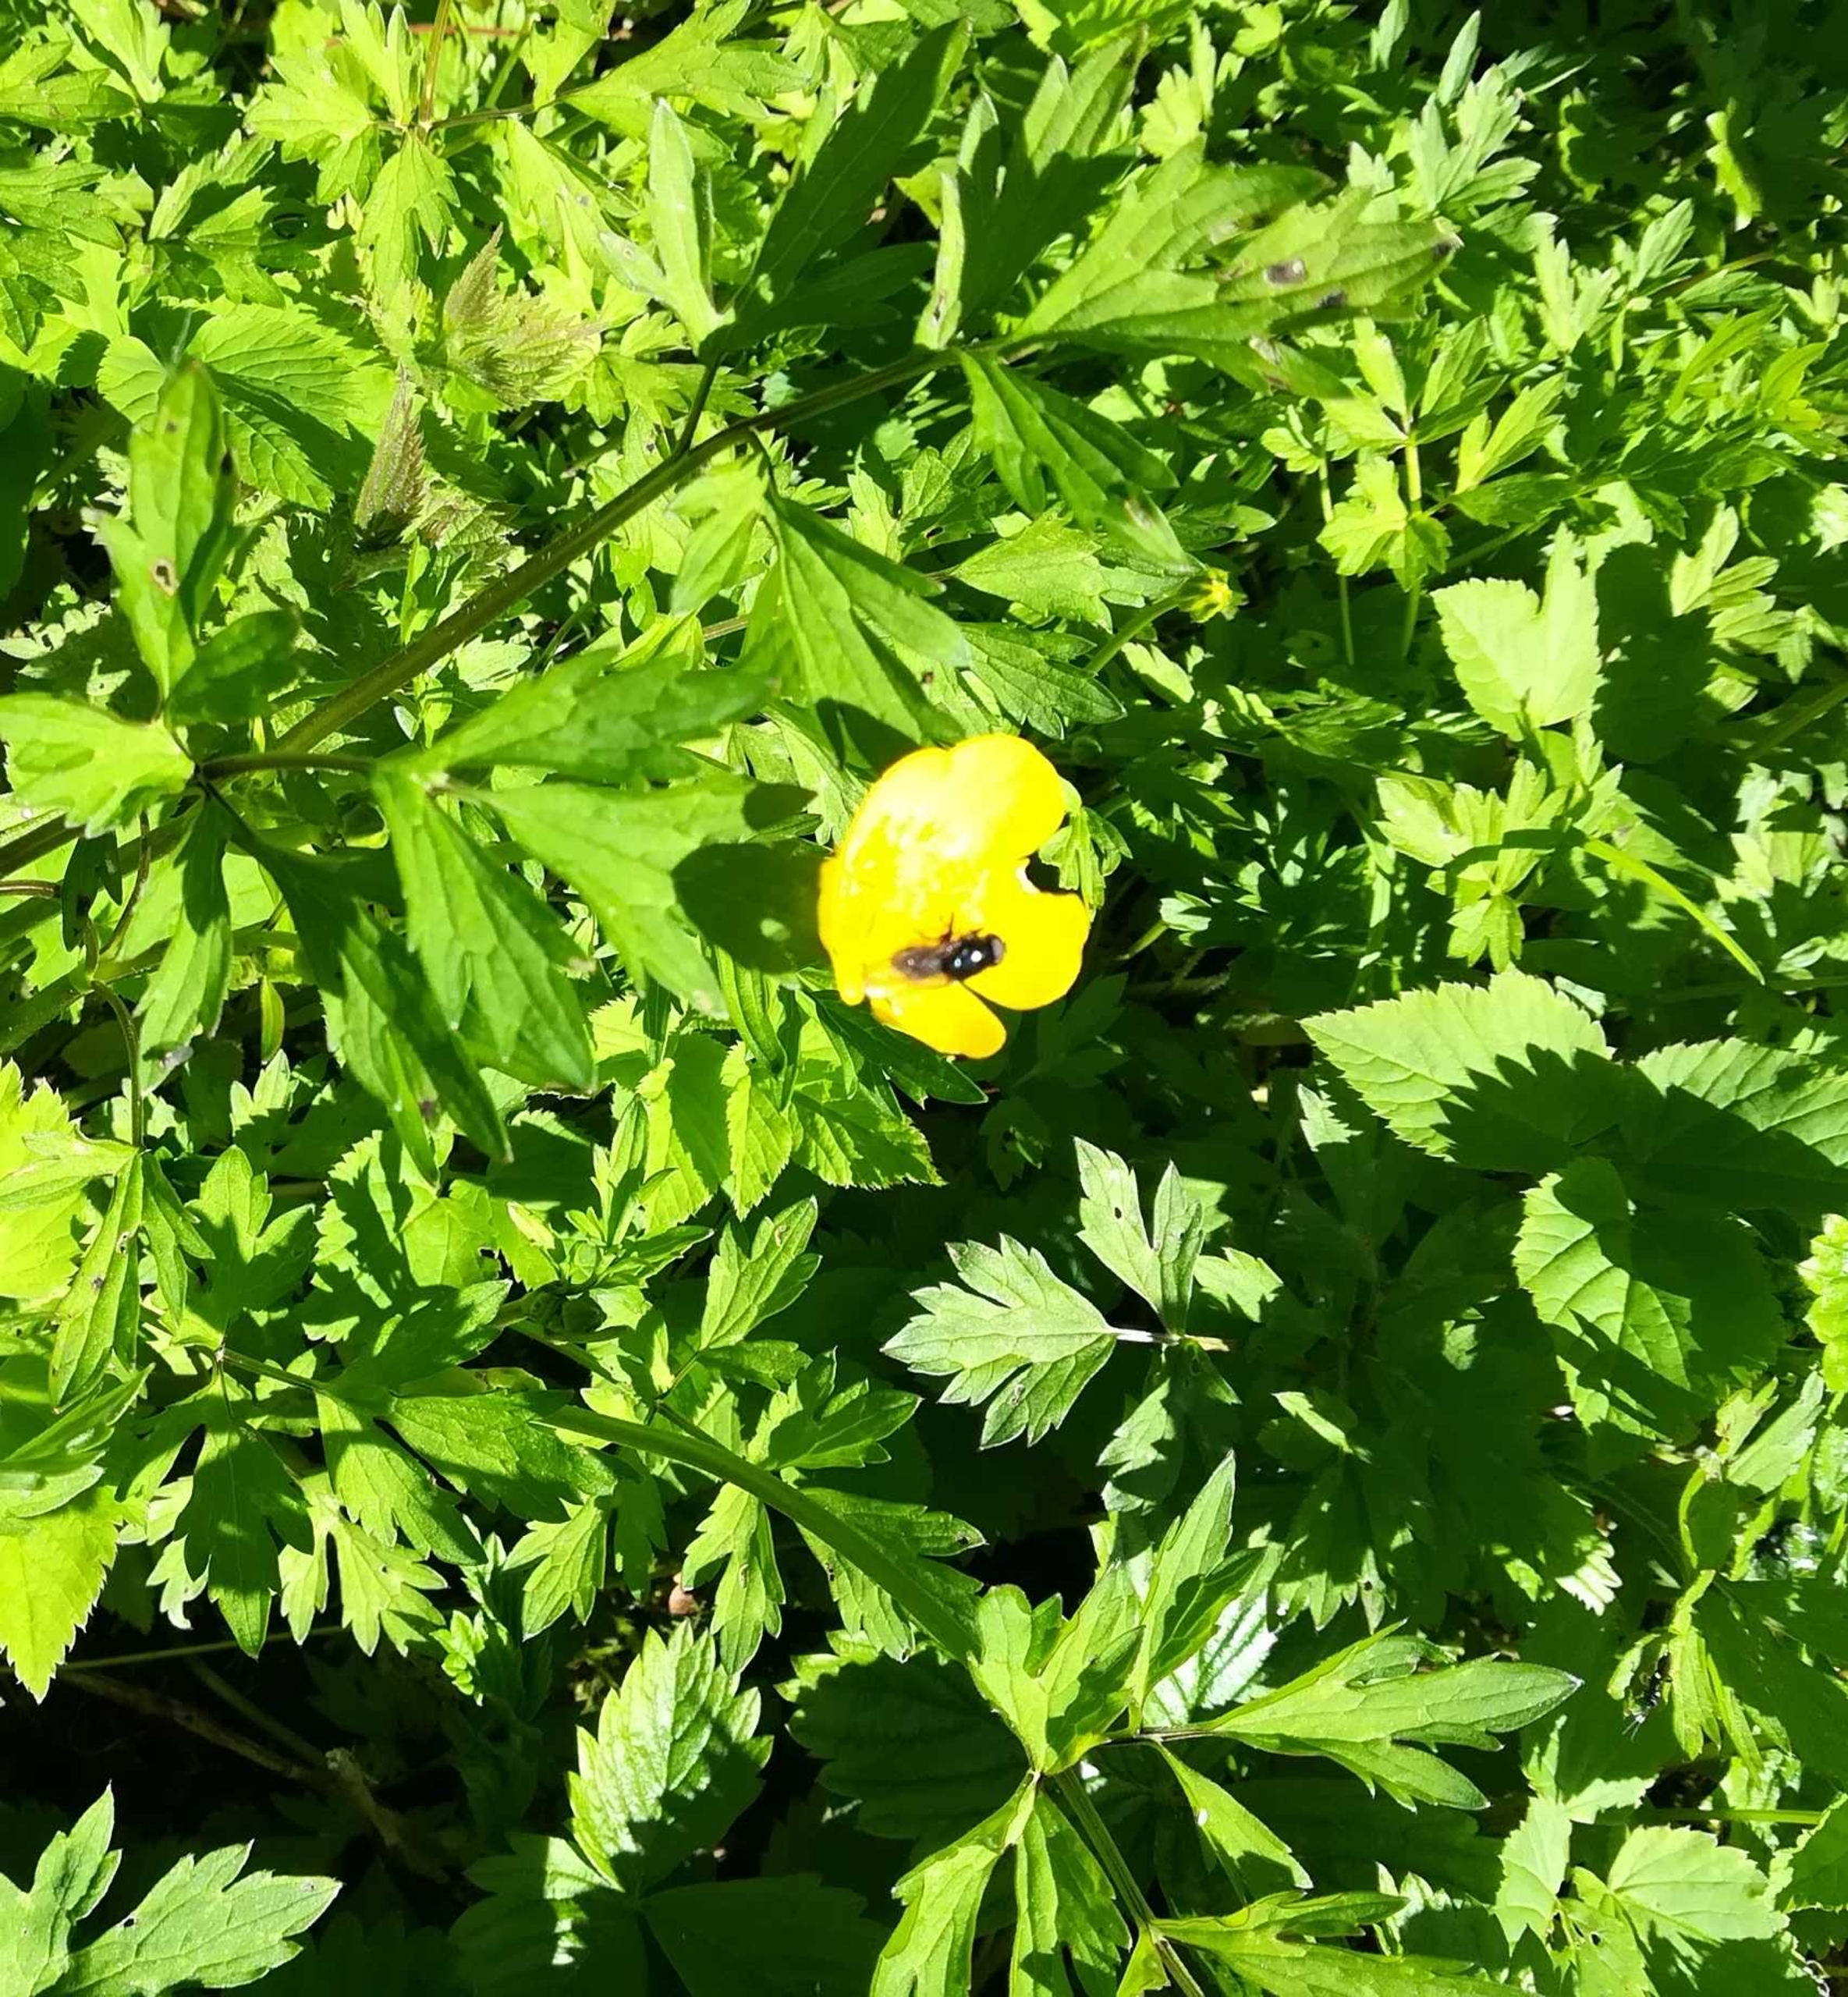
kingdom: Plantae
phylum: Tracheophyta
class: Magnoliopsida
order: Ranunculales
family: Ranunculaceae
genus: Ranunculus
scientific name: Ranunculus repens
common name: Lav ranunkel
